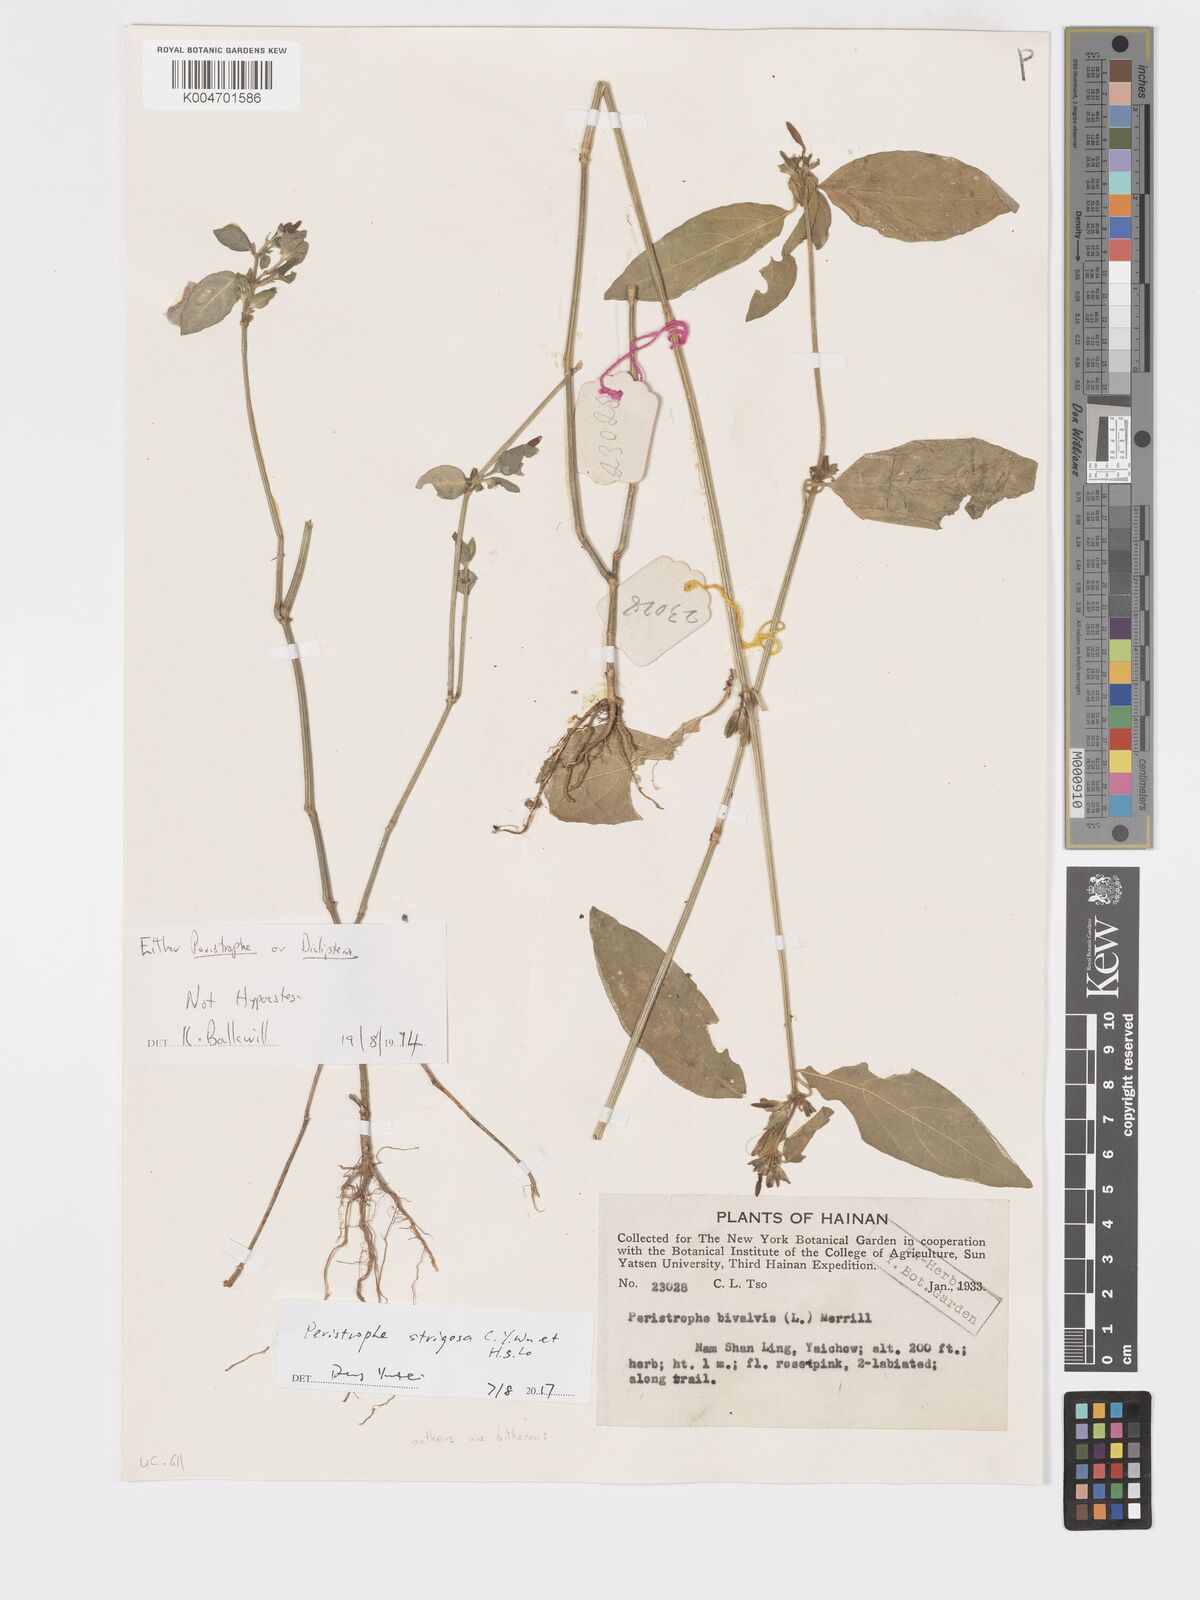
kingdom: Plantae
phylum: Tracheophyta
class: Magnoliopsida
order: Lamiales
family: Acanthaceae
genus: Dicliptera
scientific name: Dicliptera
